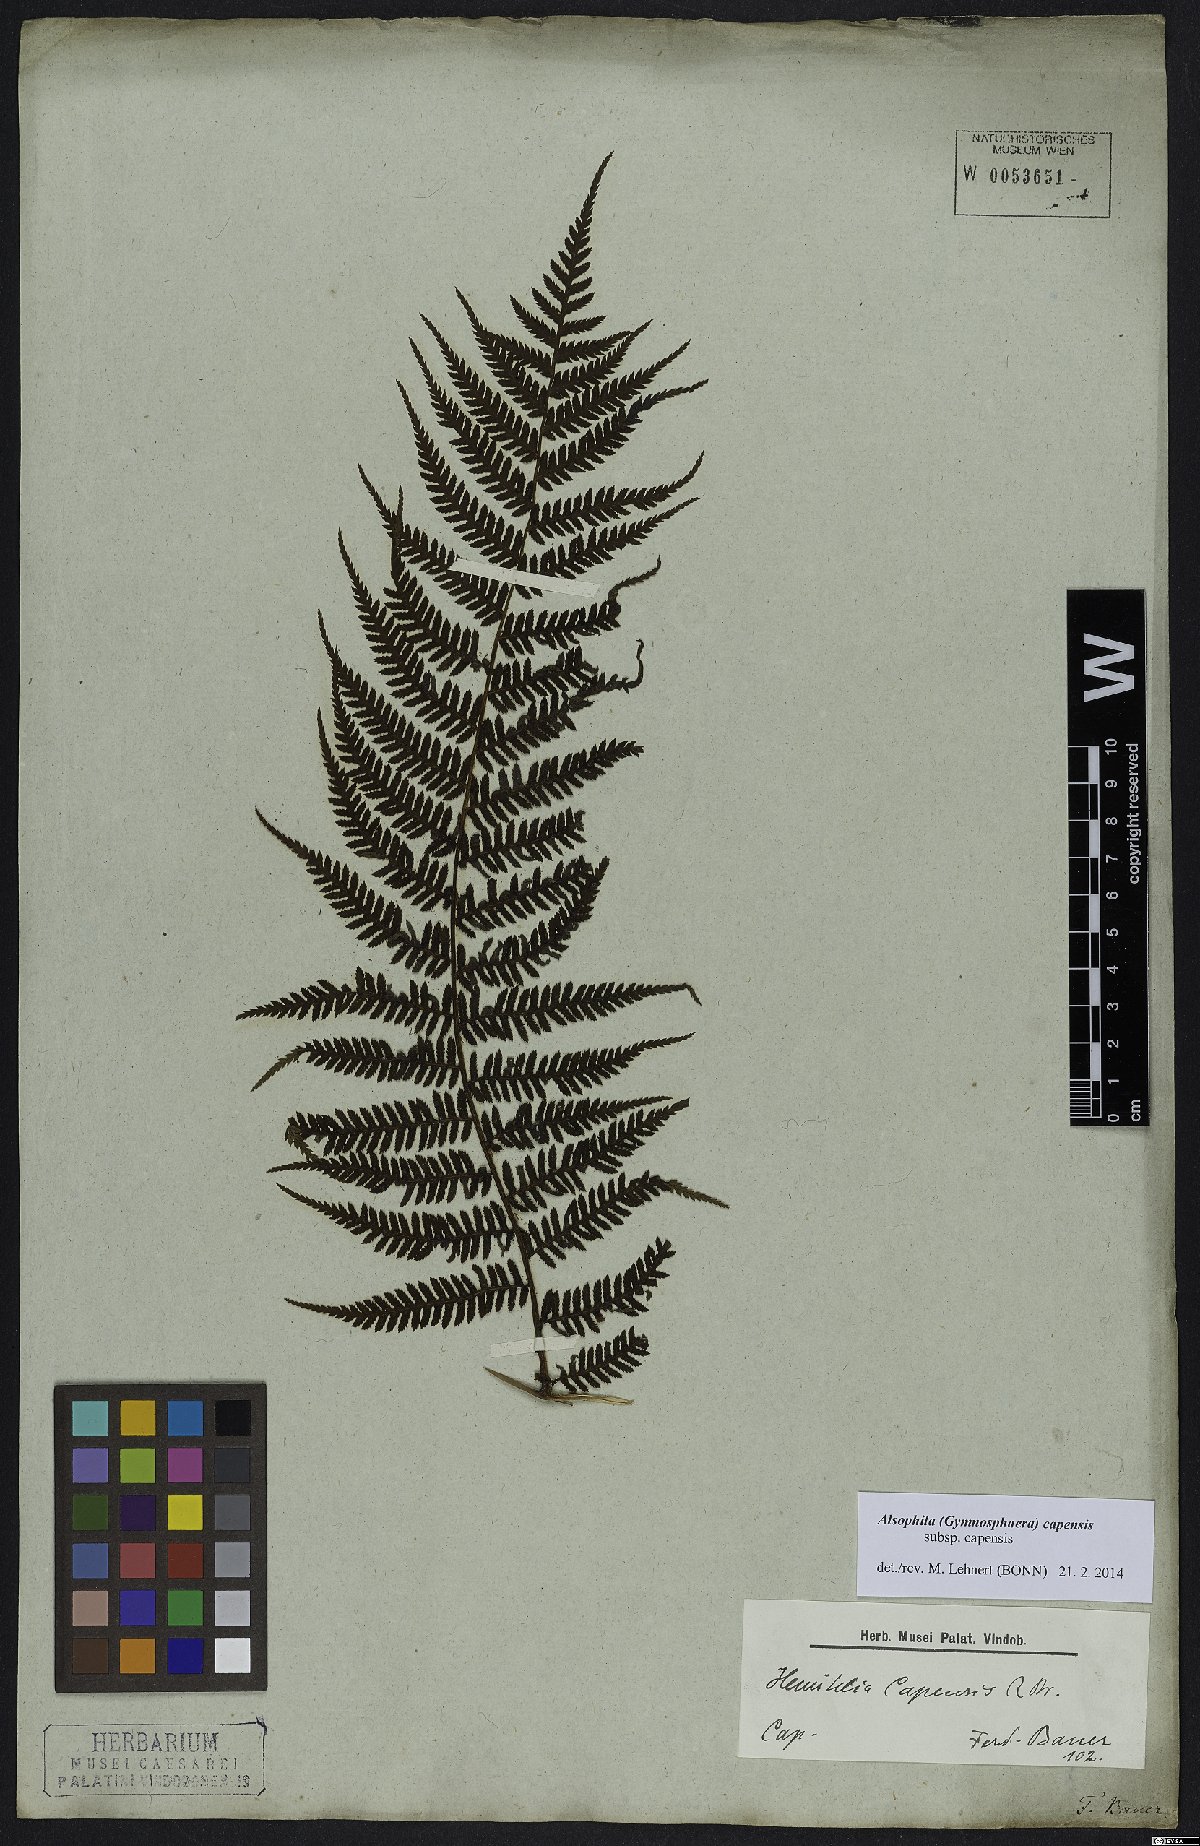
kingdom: Plantae
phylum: Tracheophyta
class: Polypodiopsida
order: Cyatheales
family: Cyatheaceae
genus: Gymnosphaera
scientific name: Gymnosphaera capensis
